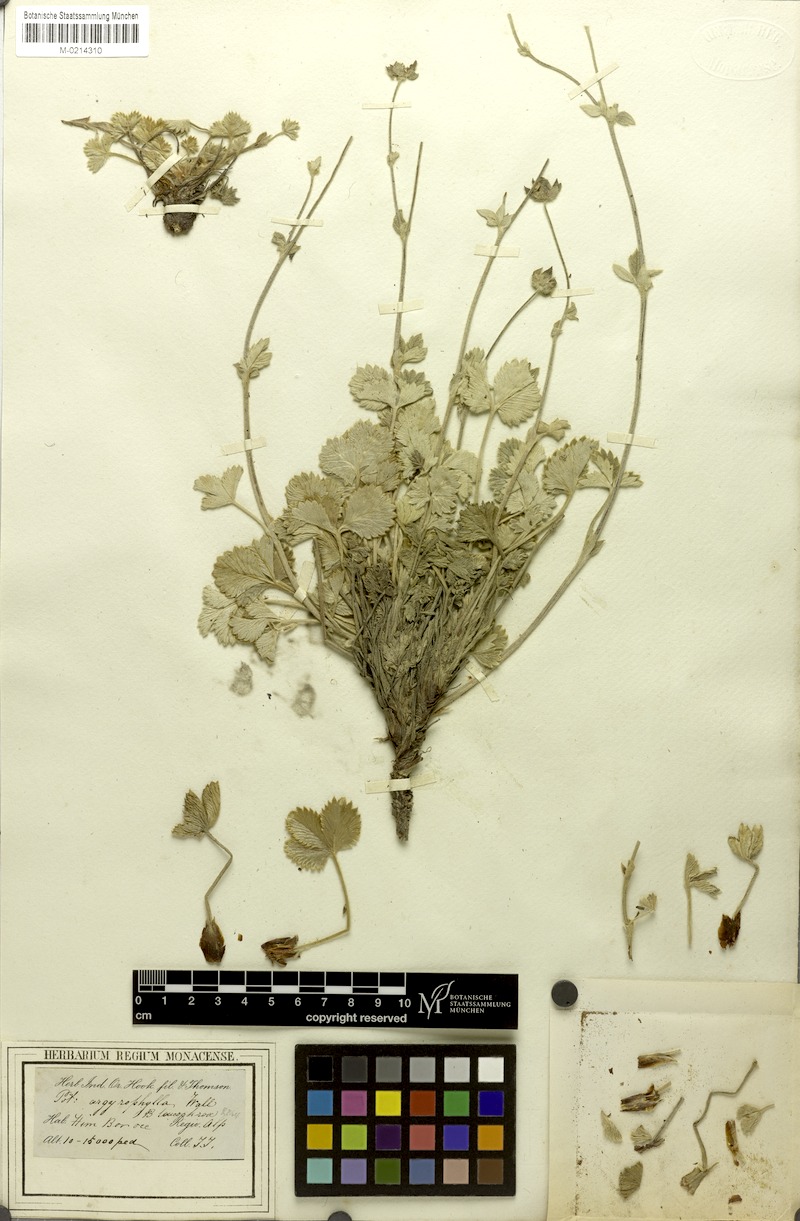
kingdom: Plantae
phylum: Tracheophyta
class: Magnoliopsida
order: Rosales
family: Rosaceae
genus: Potentilla
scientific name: Potentilla cathaclines
